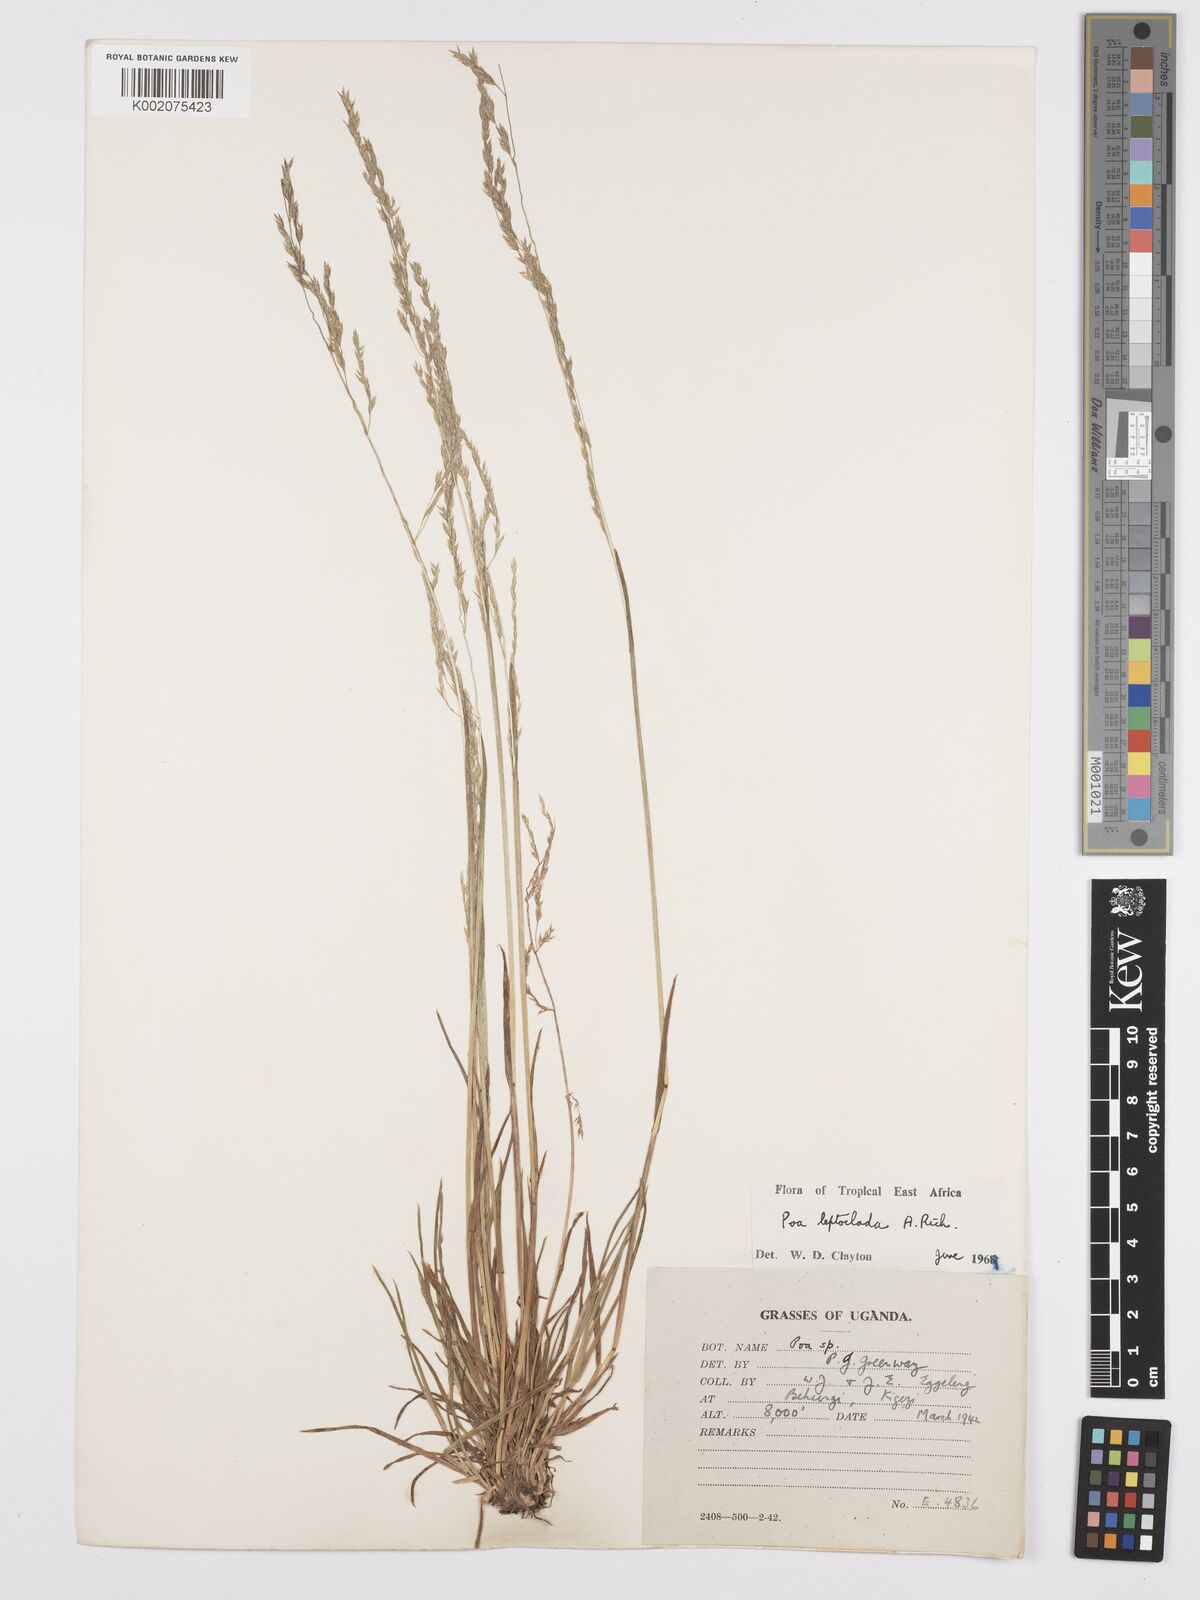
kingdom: Plantae
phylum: Tracheophyta
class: Liliopsida
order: Poales
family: Poaceae
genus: Poa
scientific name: Poa
